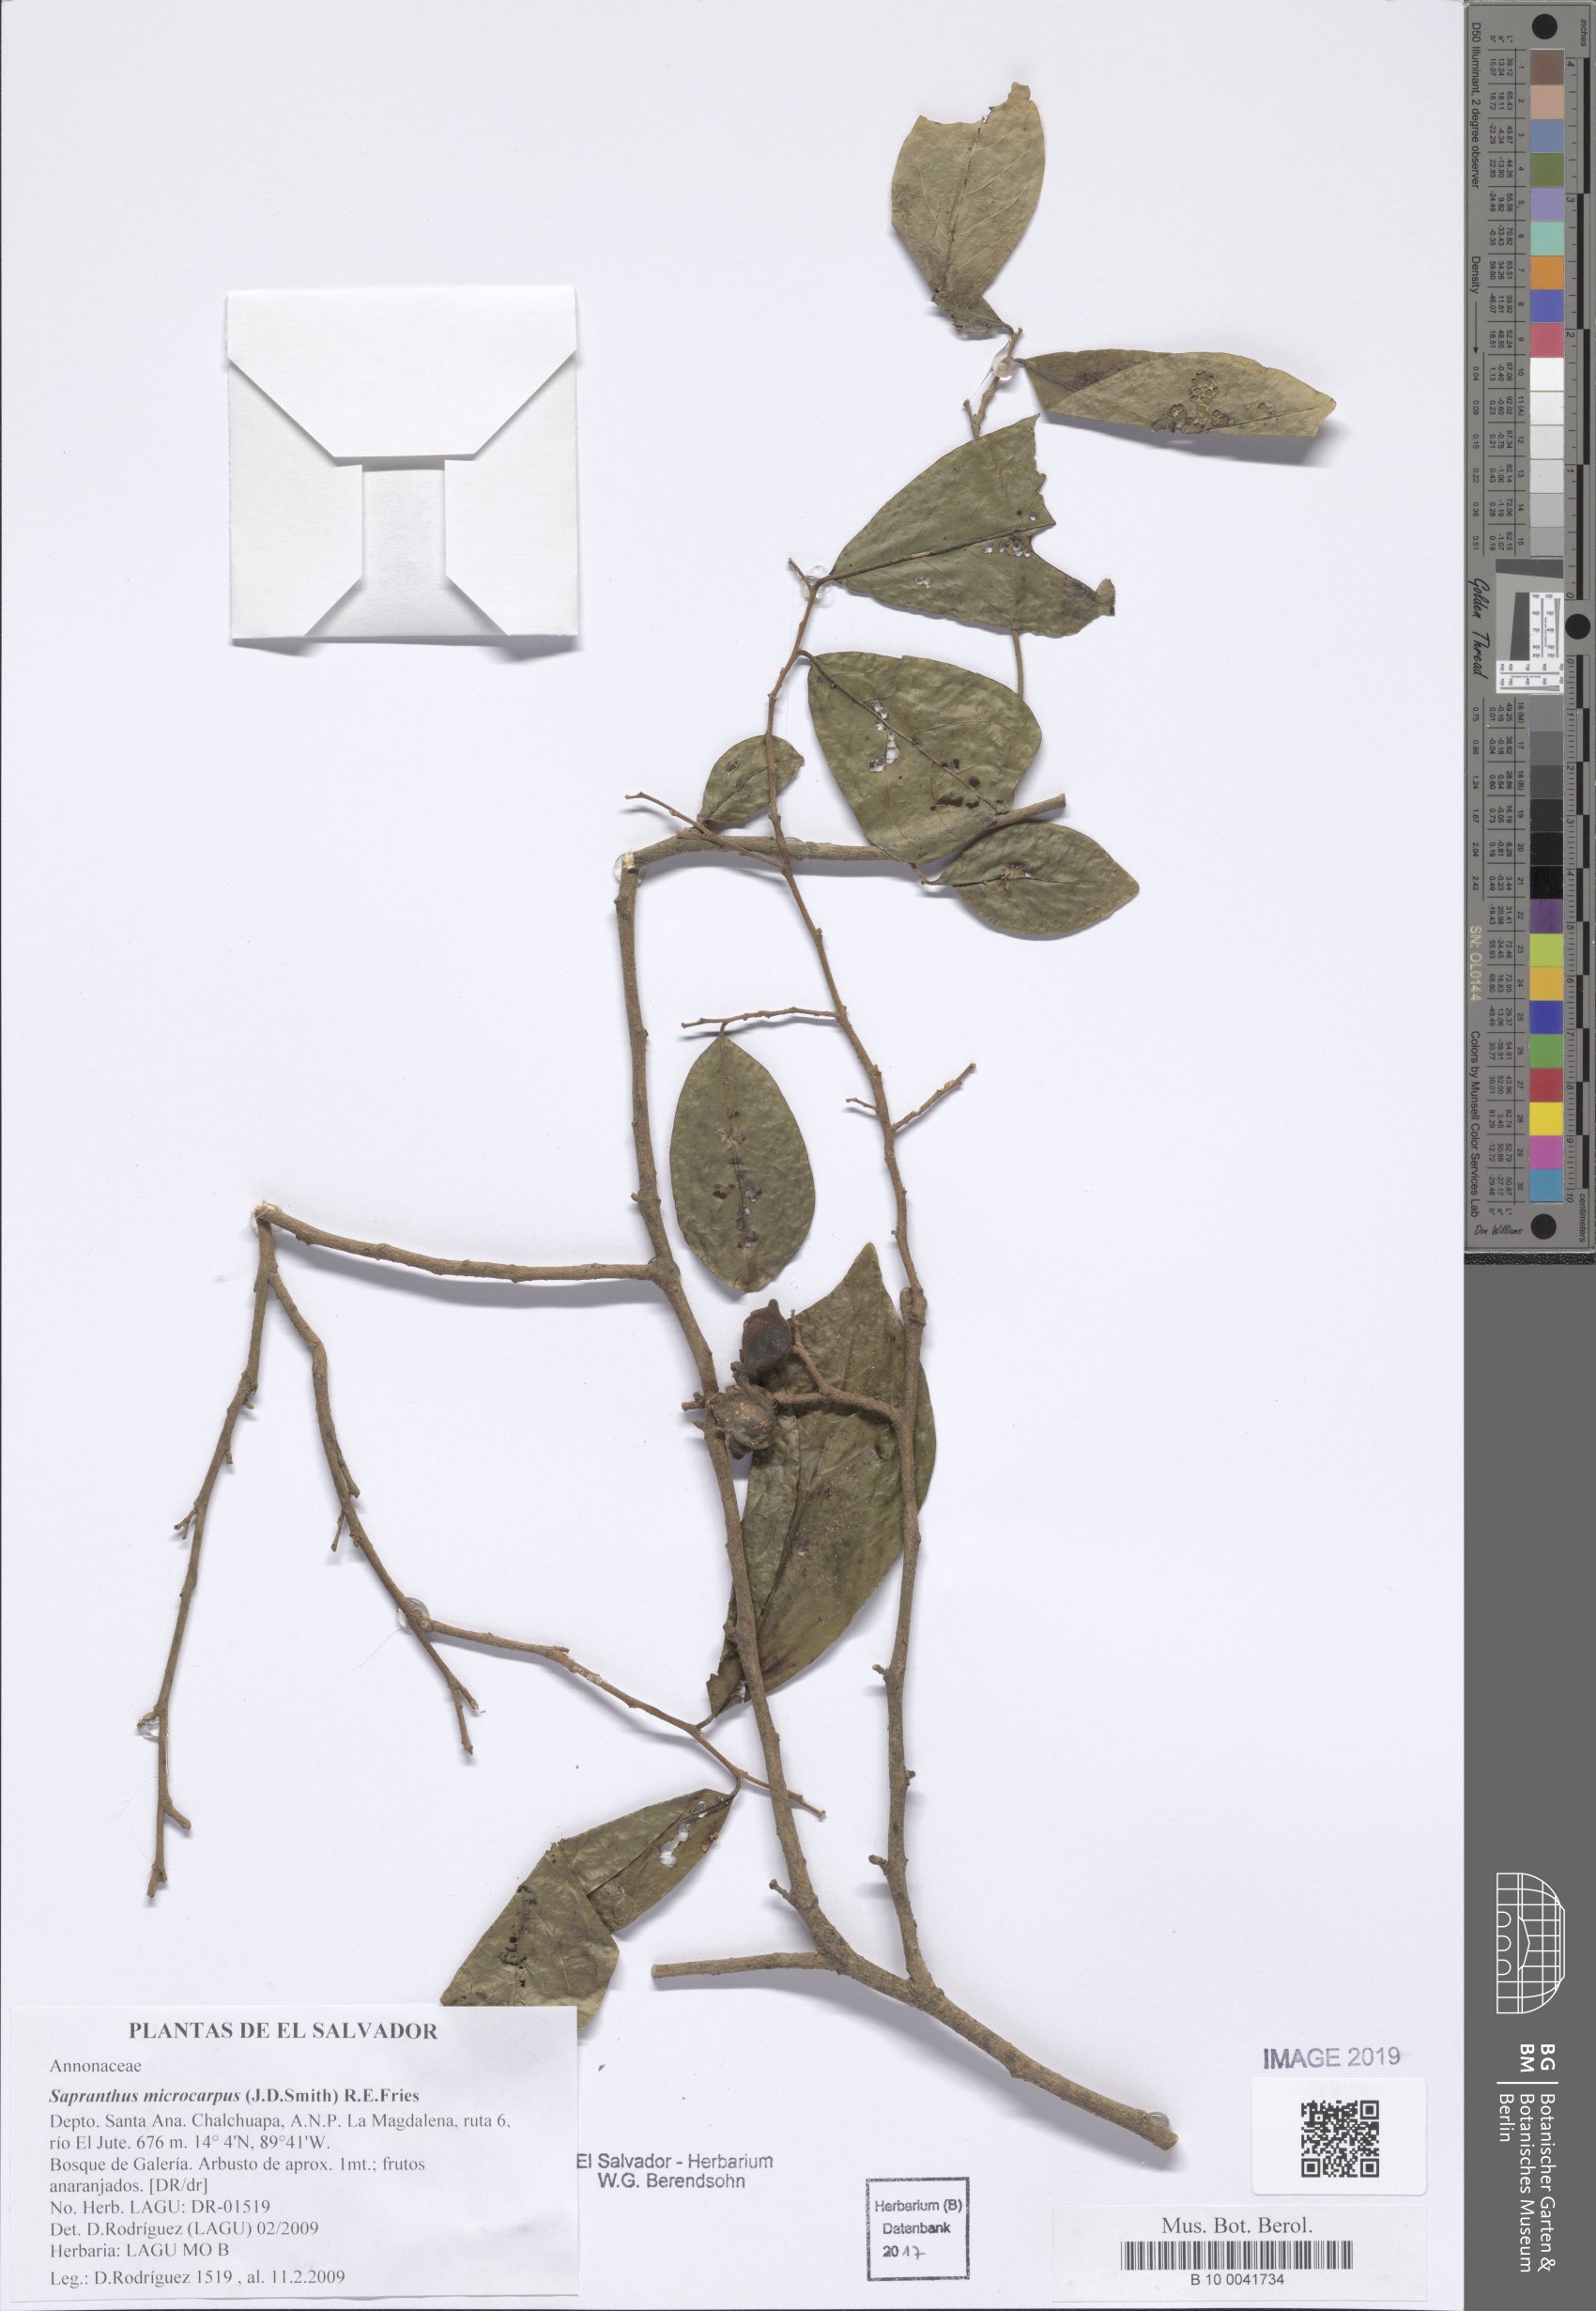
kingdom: Plantae
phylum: Tracheophyta
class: Magnoliopsida
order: Magnoliales
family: Annonaceae
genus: Sapranthus
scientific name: Sapranthus microcarpus
